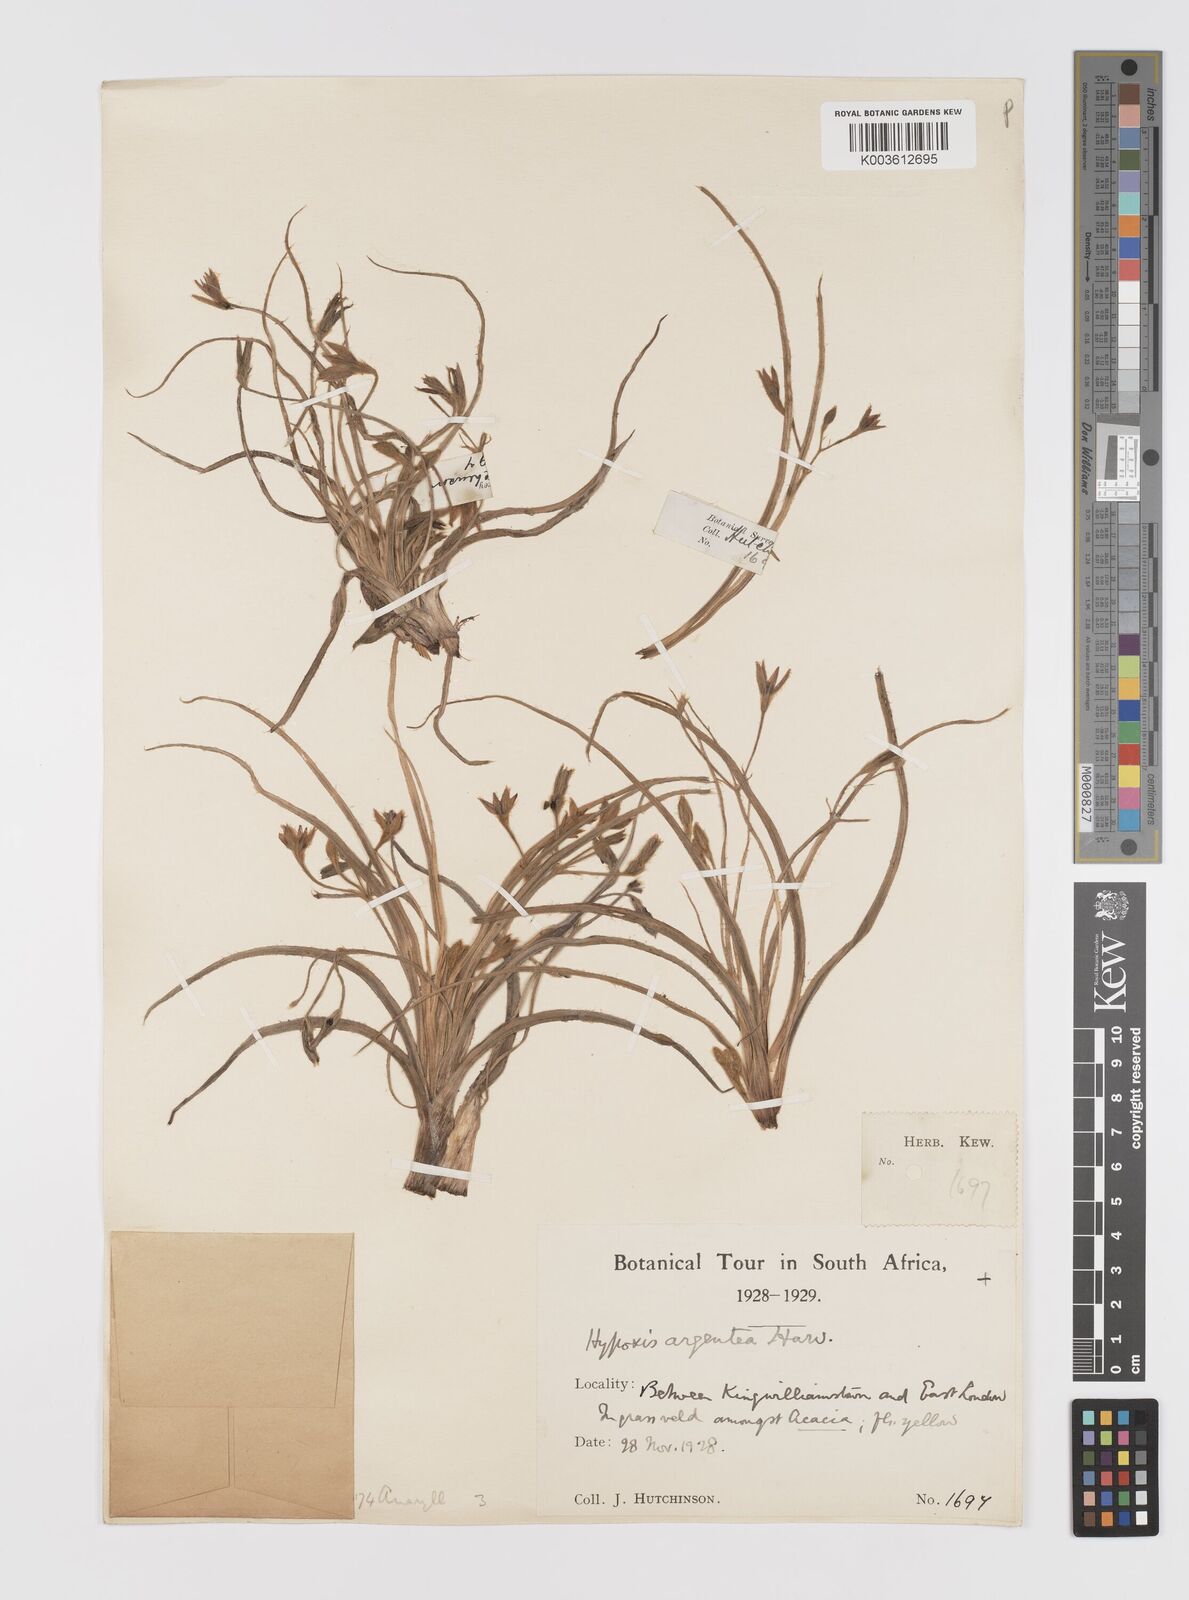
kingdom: Plantae
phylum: Tracheophyta
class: Liliopsida
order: Asparagales
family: Hypoxidaceae
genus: Hypoxis
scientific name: Hypoxis argentea
